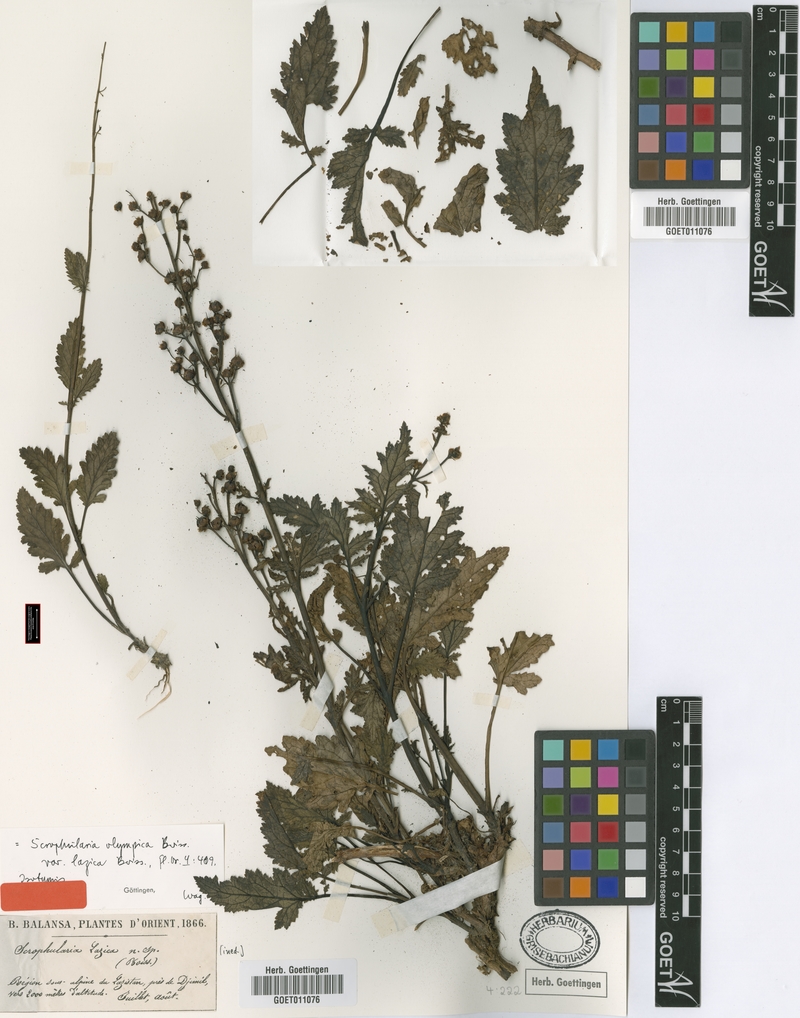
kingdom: Plantae
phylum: Tracheophyta
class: Magnoliopsida
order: Lamiales
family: Scrophulariaceae
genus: Scrophularia
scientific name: Scrophularia olympica
